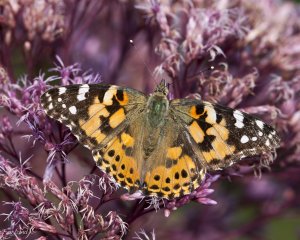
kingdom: Animalia
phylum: Arthropoda
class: Insecta
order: Lepidoptera
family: Nymphalidae
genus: Vanessa
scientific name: Vanessa cardui
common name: Painted Lady
